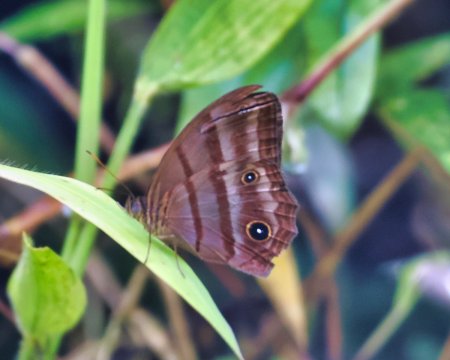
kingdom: Animalia
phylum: Arthropoda
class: Insecta
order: Lepidoptera
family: Nymphalidae
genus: Magneuptychia
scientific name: Magneuptychia tiessa
